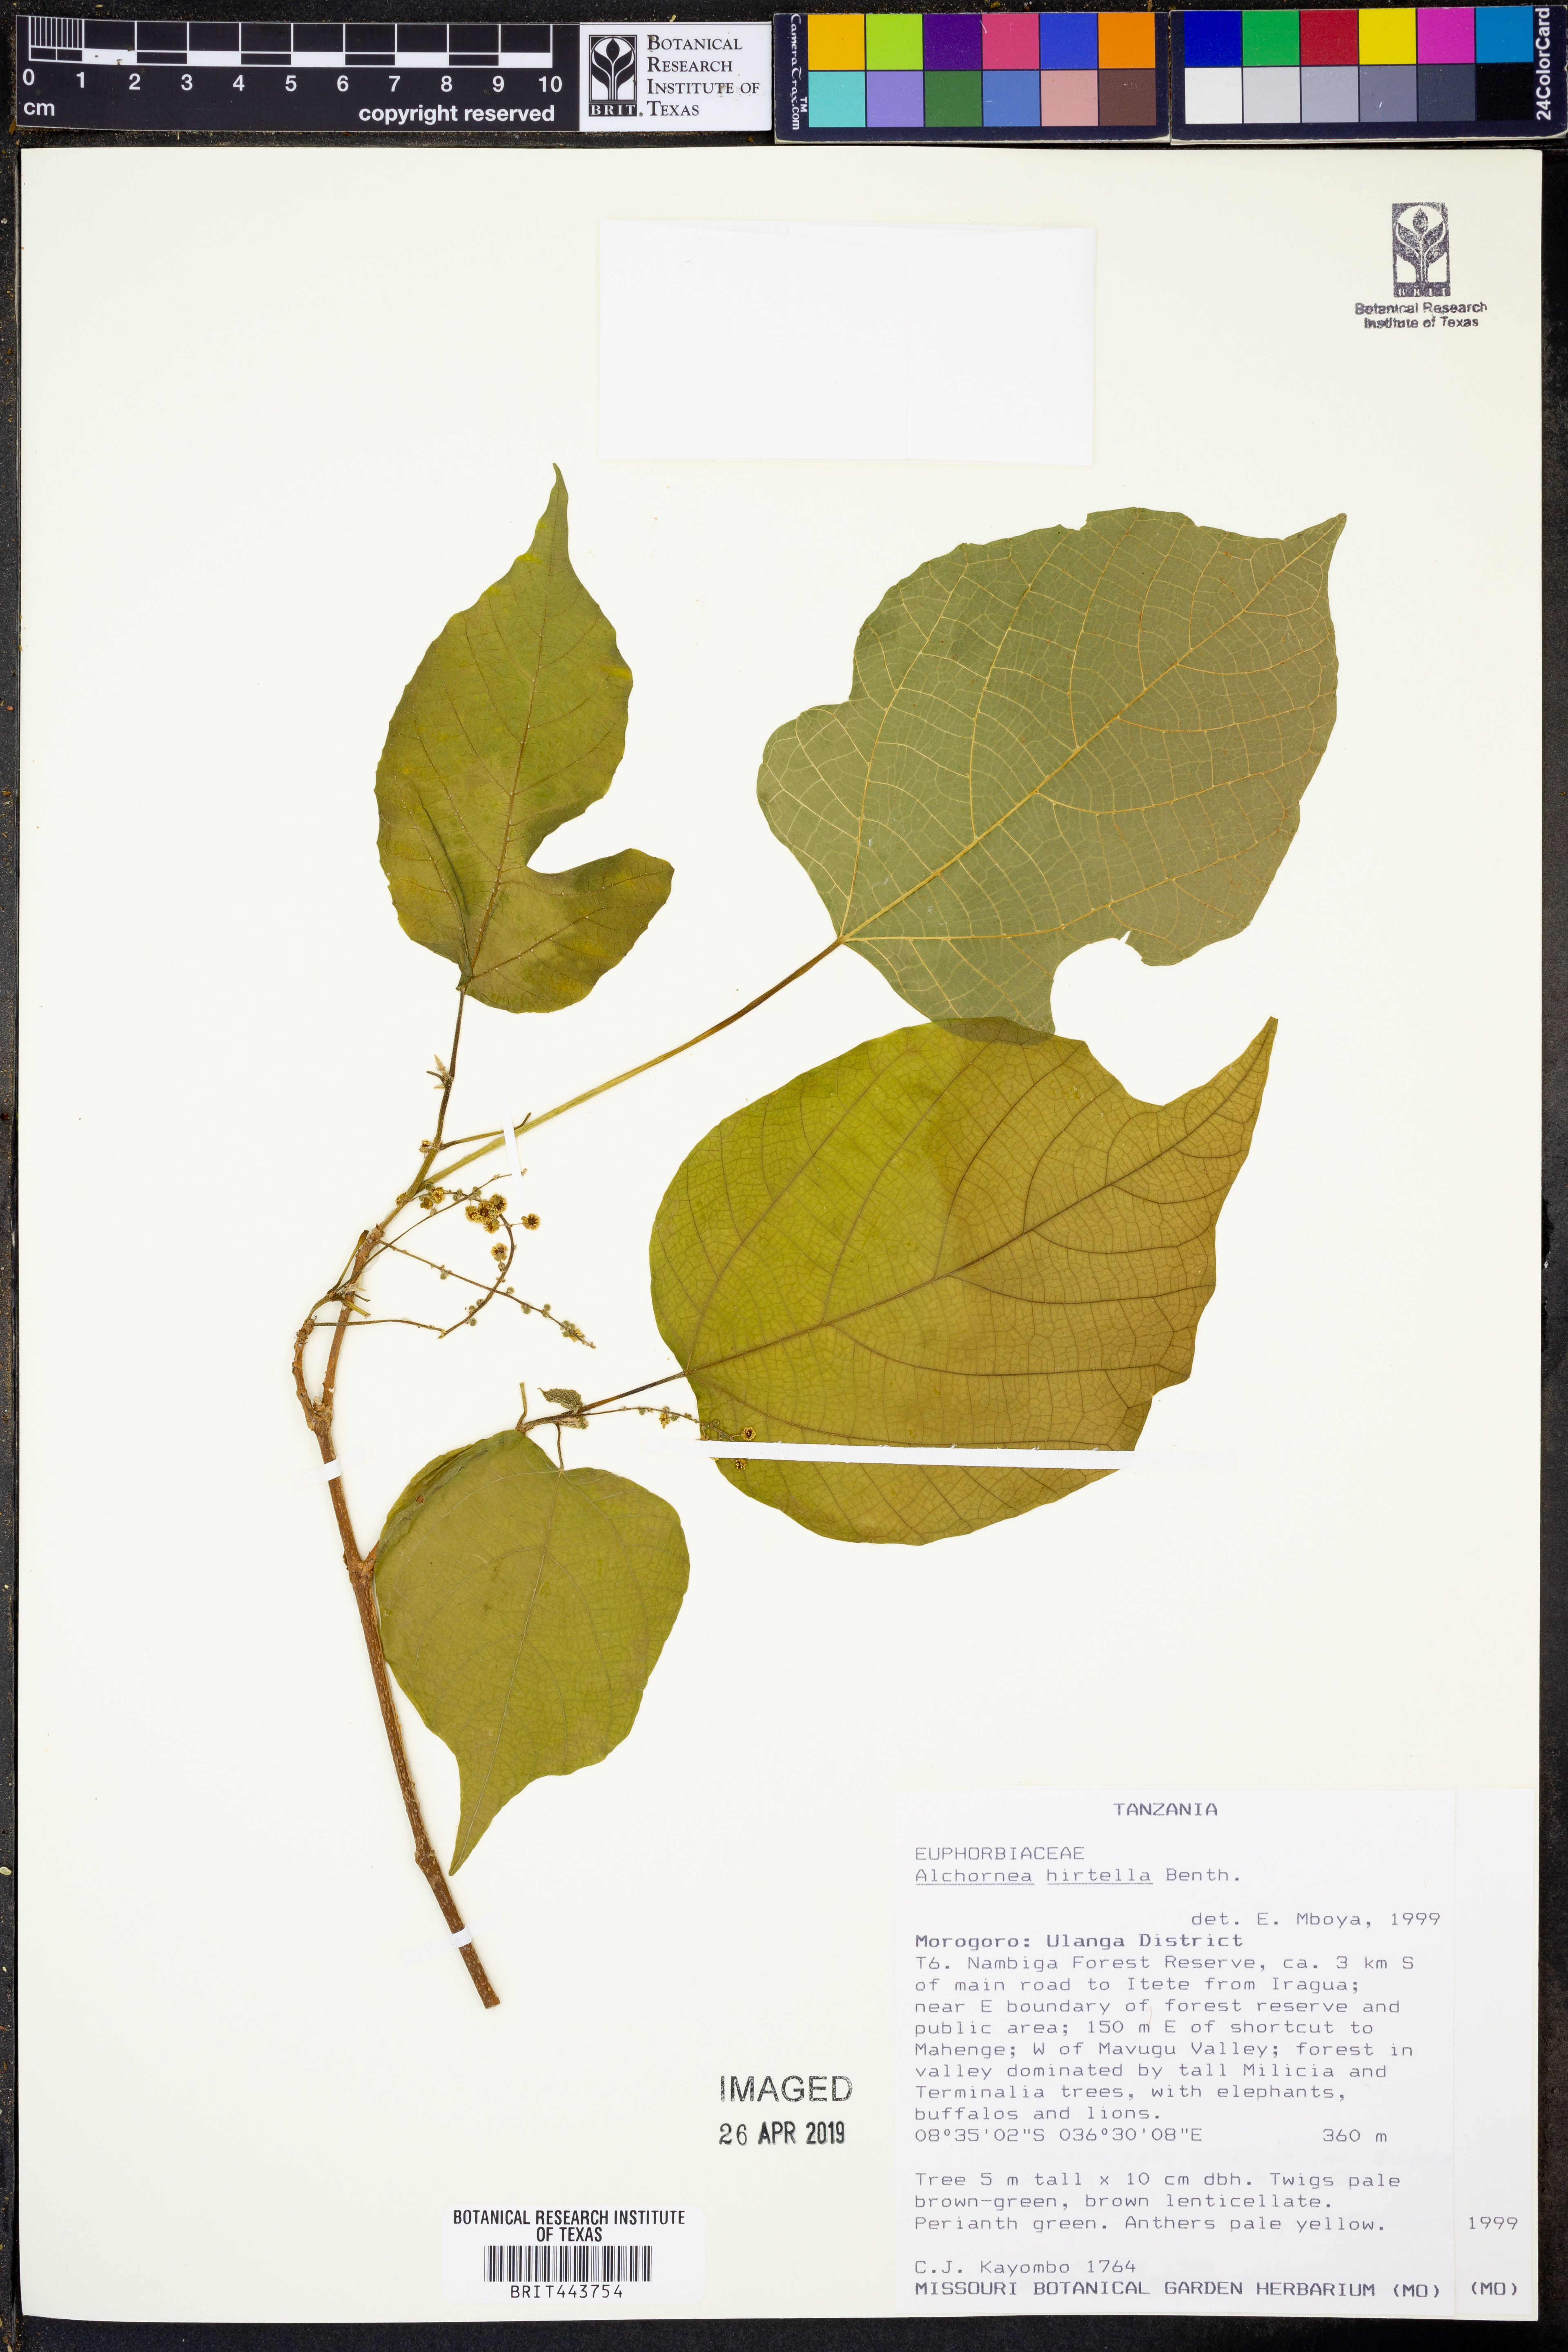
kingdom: Plantae
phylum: Tracheophyta
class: Magnoliopsida
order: Malpighiales
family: Euphorbiaceae
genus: Alchornea
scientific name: Alchornea hirtella
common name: Forest bead-string
